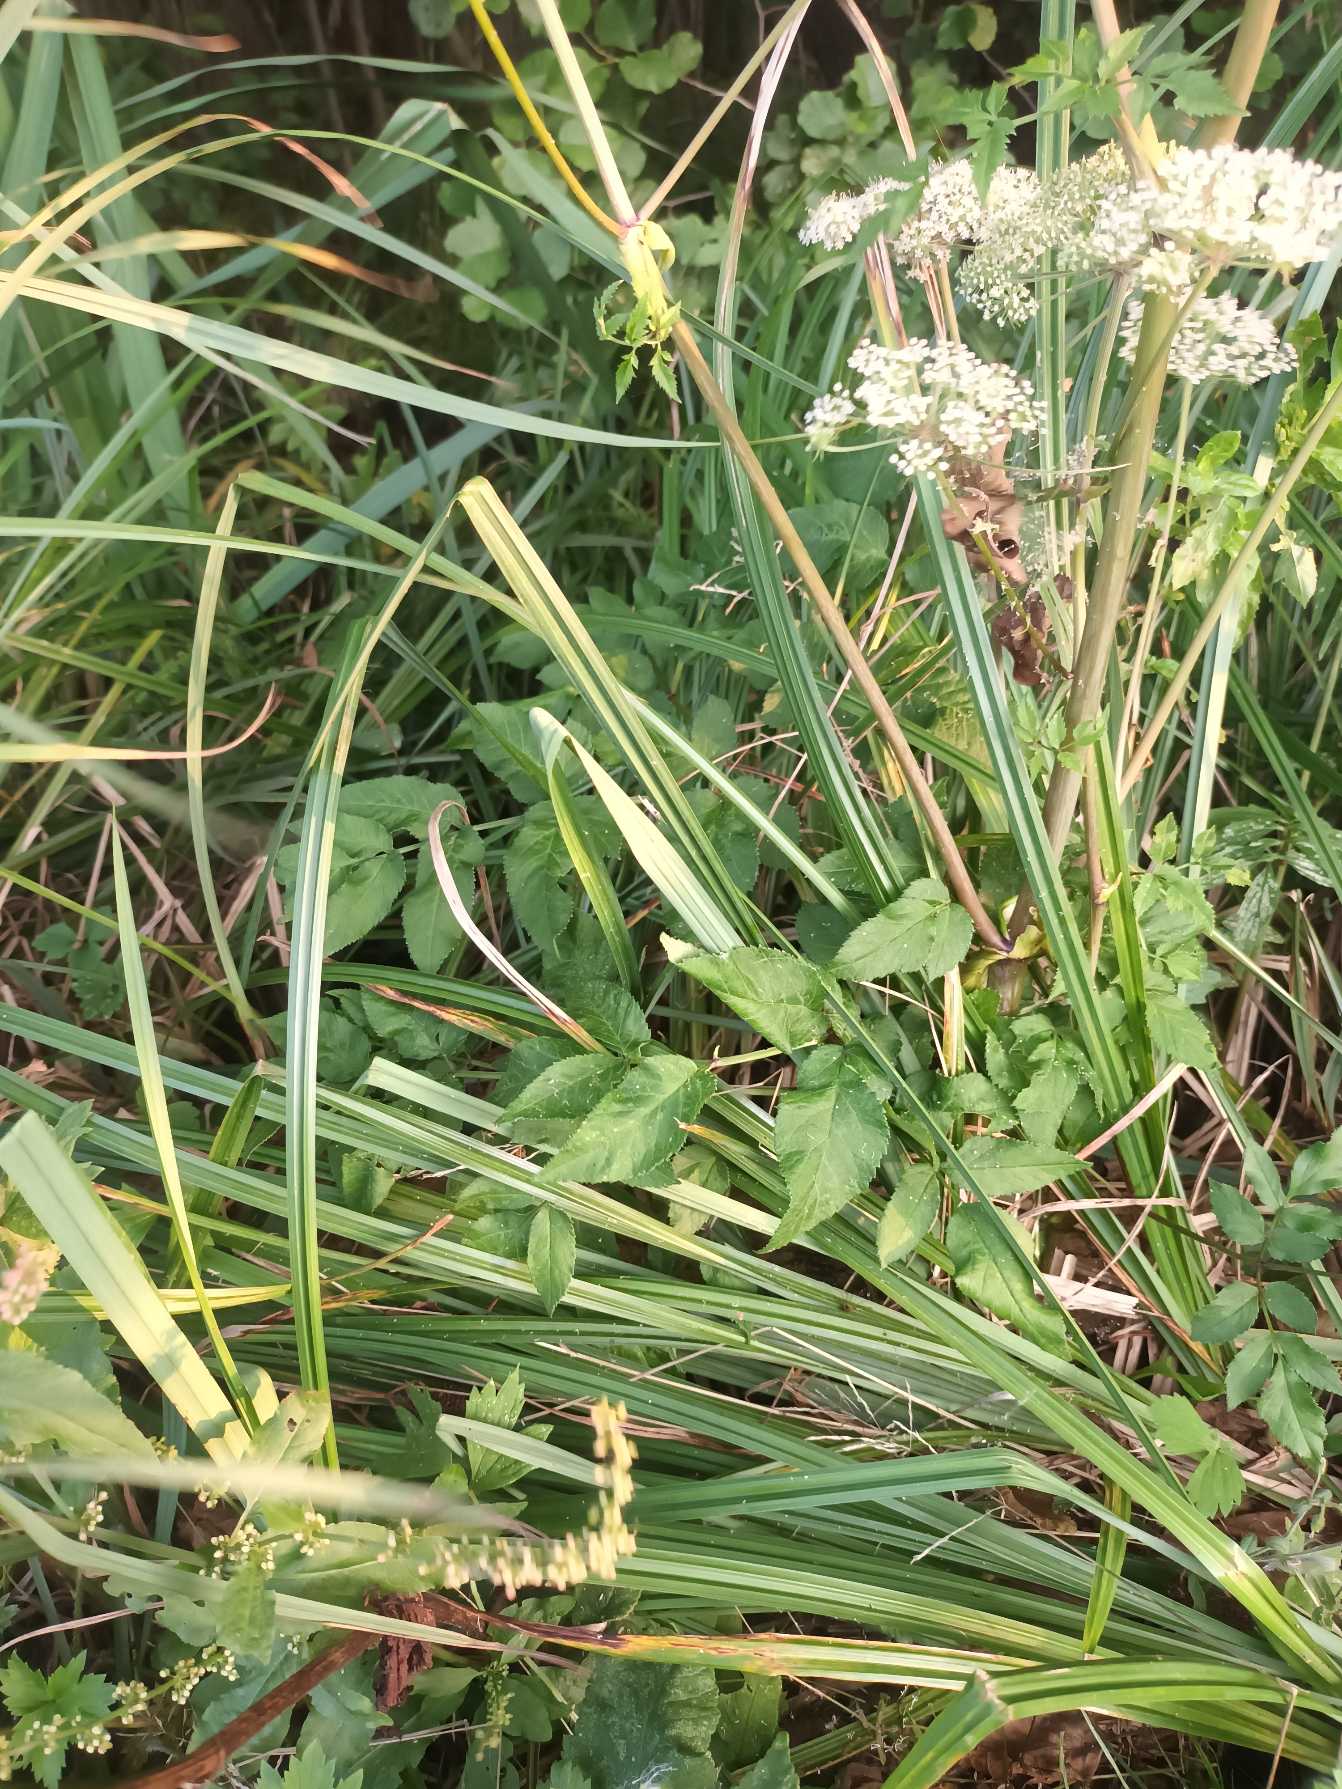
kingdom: Plantae
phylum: Tracheophyta
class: Magnoliopsida
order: Apiales
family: Apiaceae
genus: Angelica
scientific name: Angelica sylvestris
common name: Angelik
